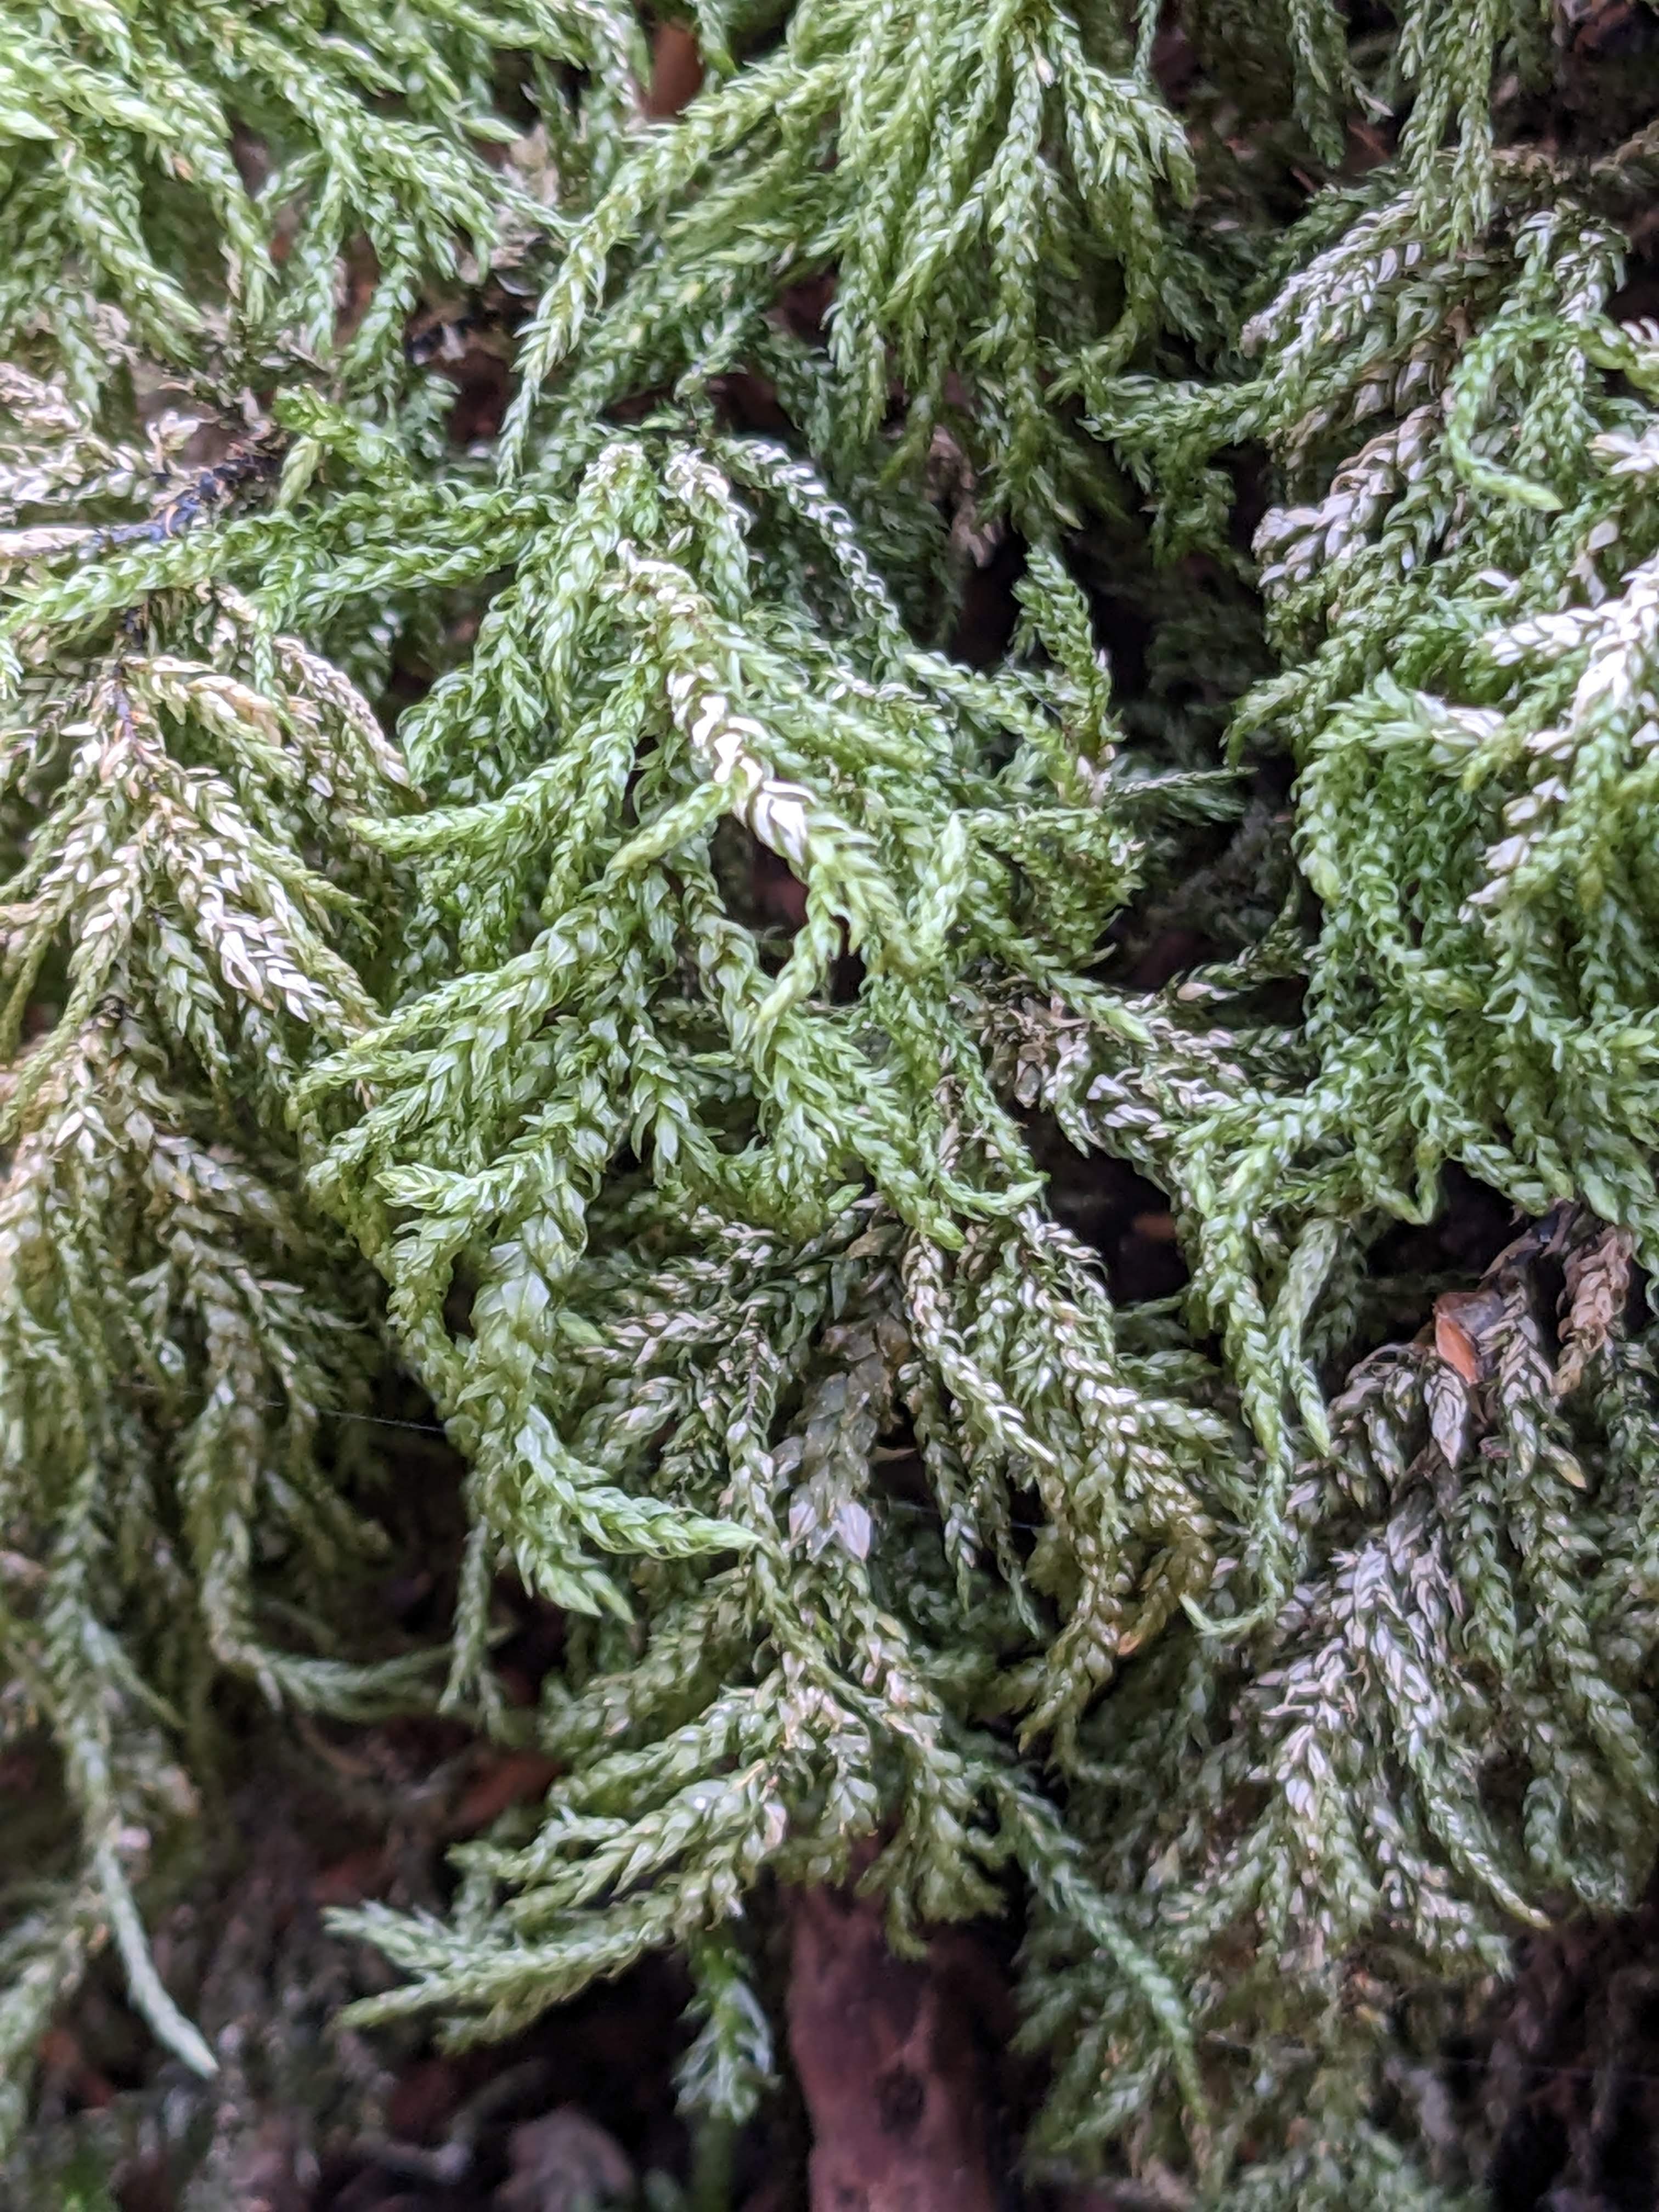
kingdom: Plantae
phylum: Bryophyta
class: Bryopsida
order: Hypnales
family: Neckeraceae
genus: Thamnobryum
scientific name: Thamnobryum alopecurum
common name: Mat bækkost
